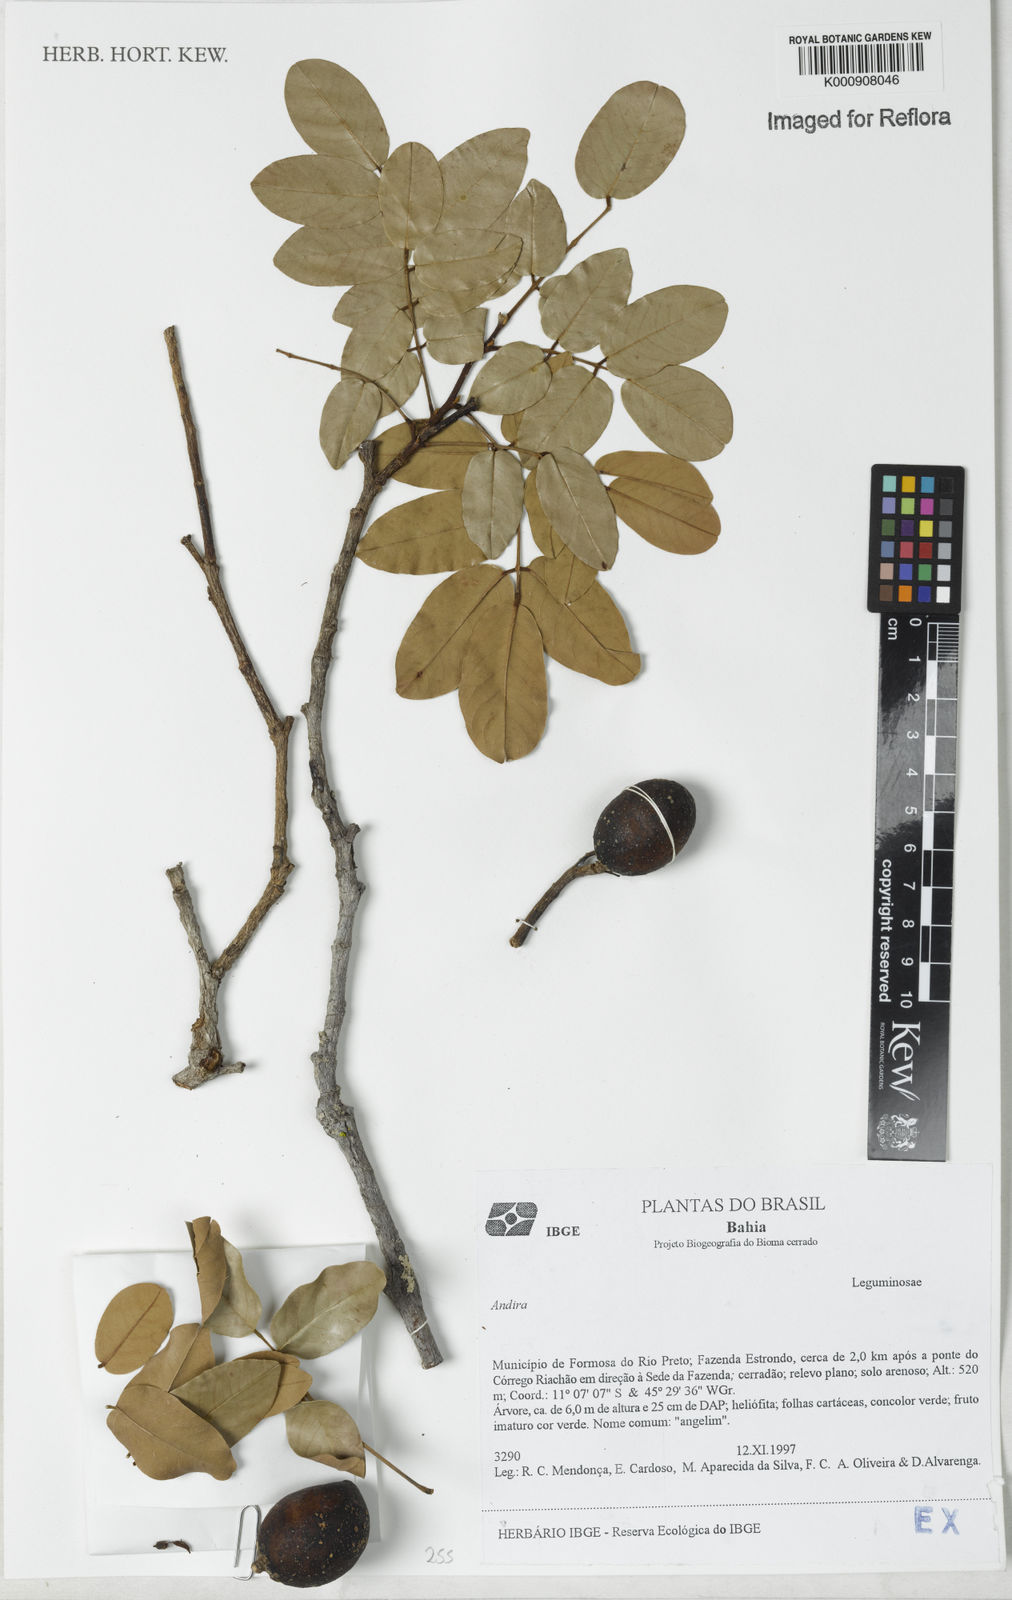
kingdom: Plantae
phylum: Tracheophyta
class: Magnoliopsida
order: Fabales
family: Fabaceae
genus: Andira
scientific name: Andira
